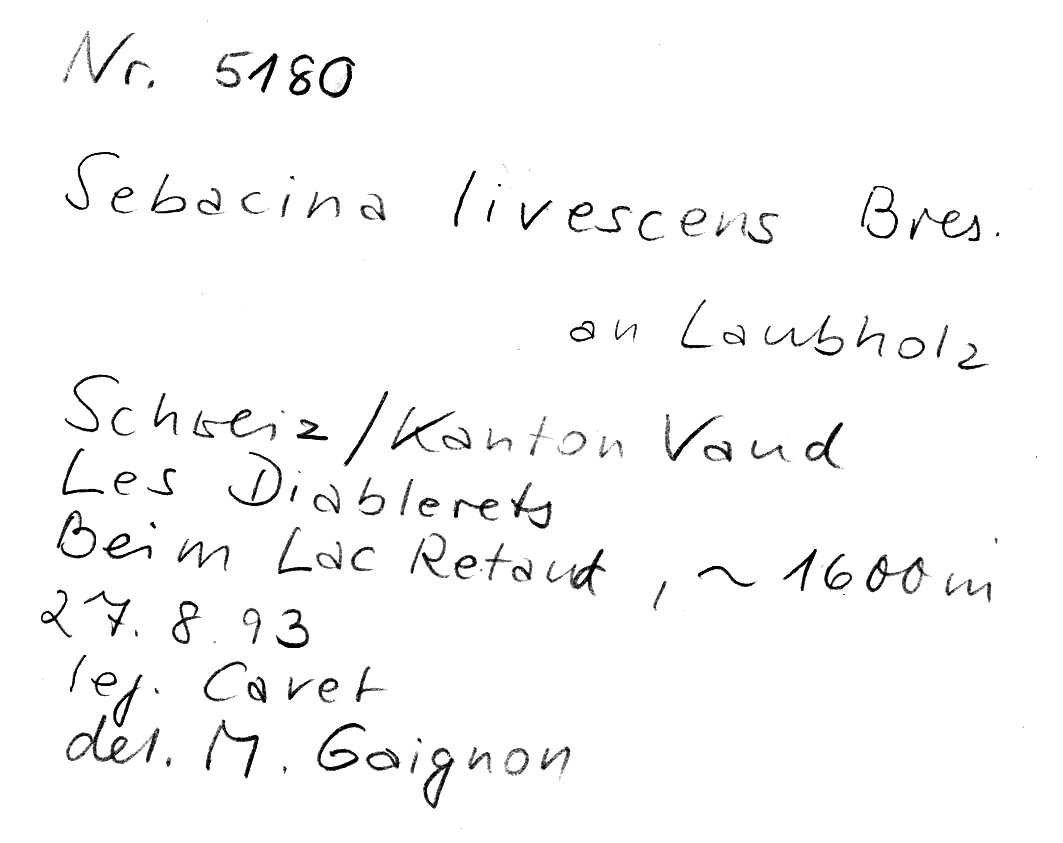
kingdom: Fungi
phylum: Basidiomycota
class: Agaricomycetes
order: Sebacinales
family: Sebacinaceae
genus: Sebacina
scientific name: Sebacina epigaea
